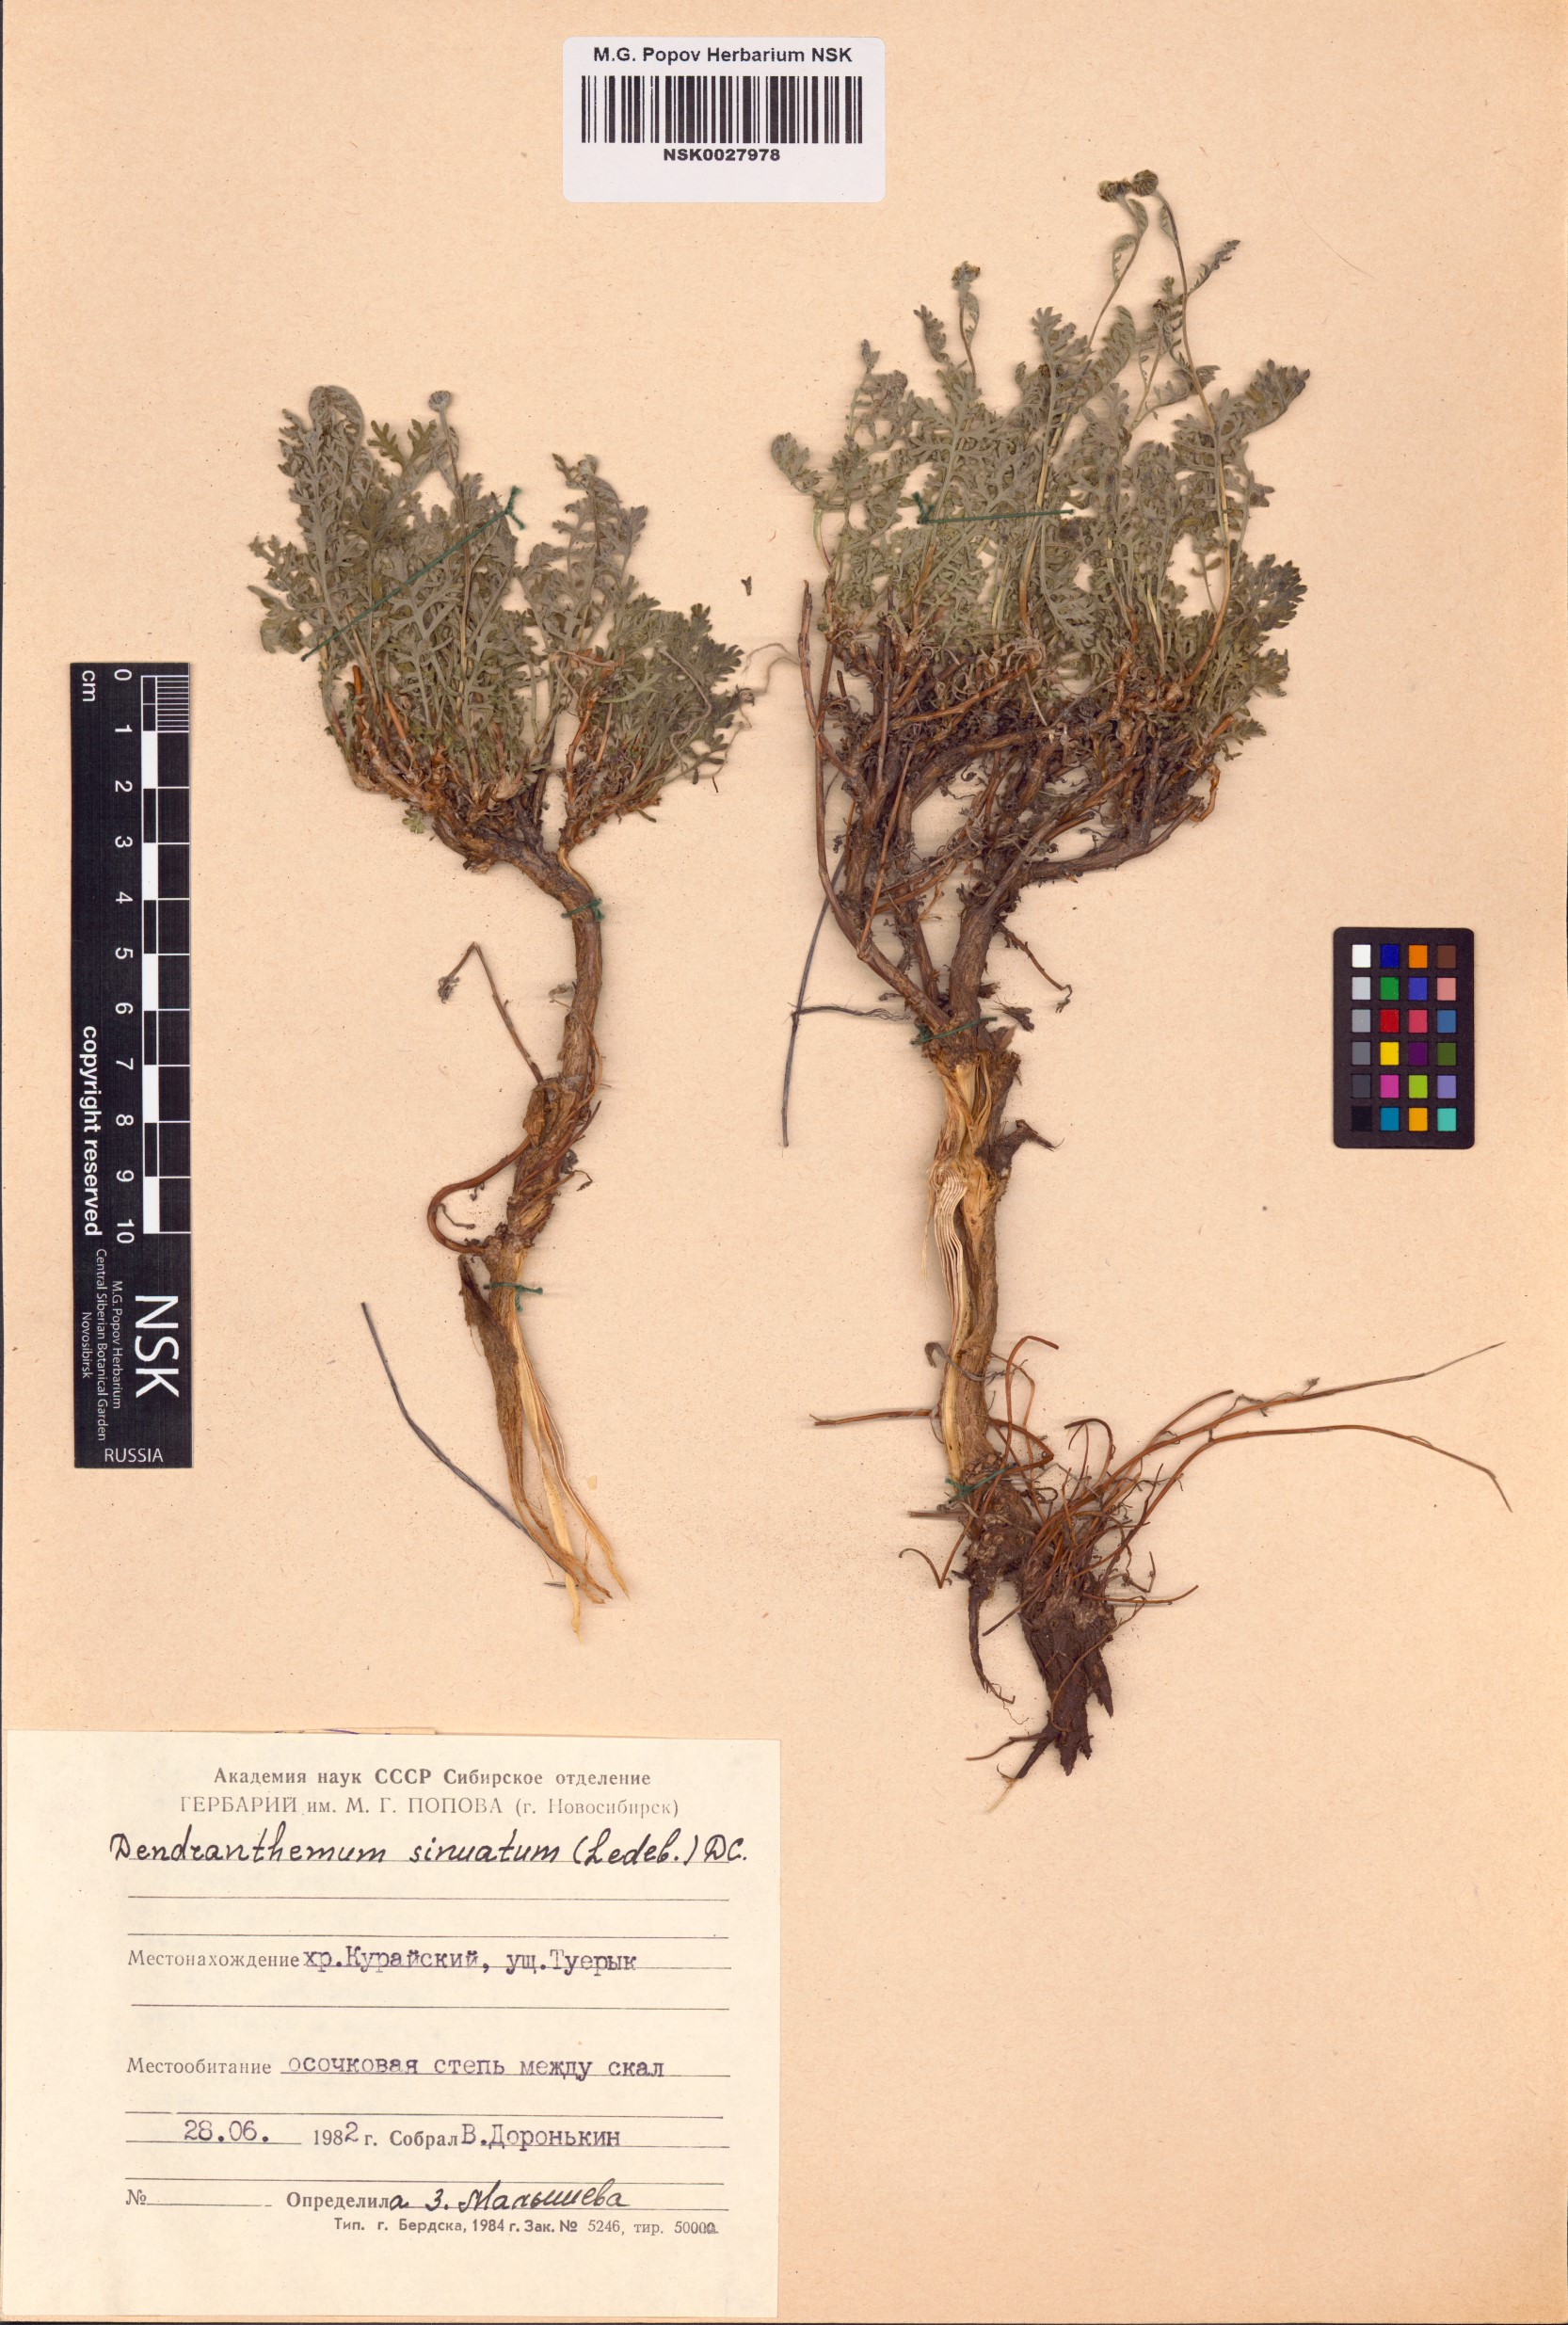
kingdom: Plantae
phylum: Tracheophyta
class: Magnoliopsida
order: Asterales
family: Asteraceae
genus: Chrysanthemum
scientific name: Chrysanthemum sinuatum
